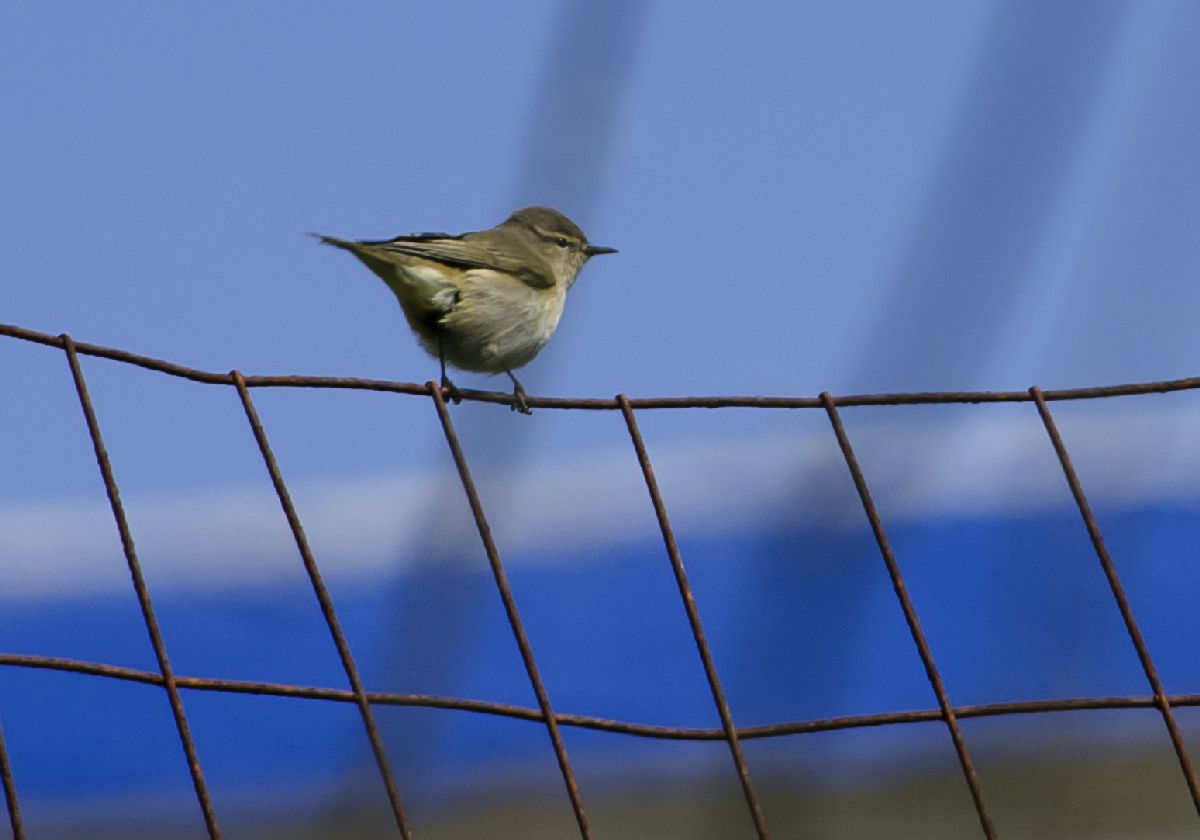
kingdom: Animalia
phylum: Chordata
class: Aves
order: Passeriformes
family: Phylloscopidae
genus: Phylloscopus
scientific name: Phylloscopus collybita
